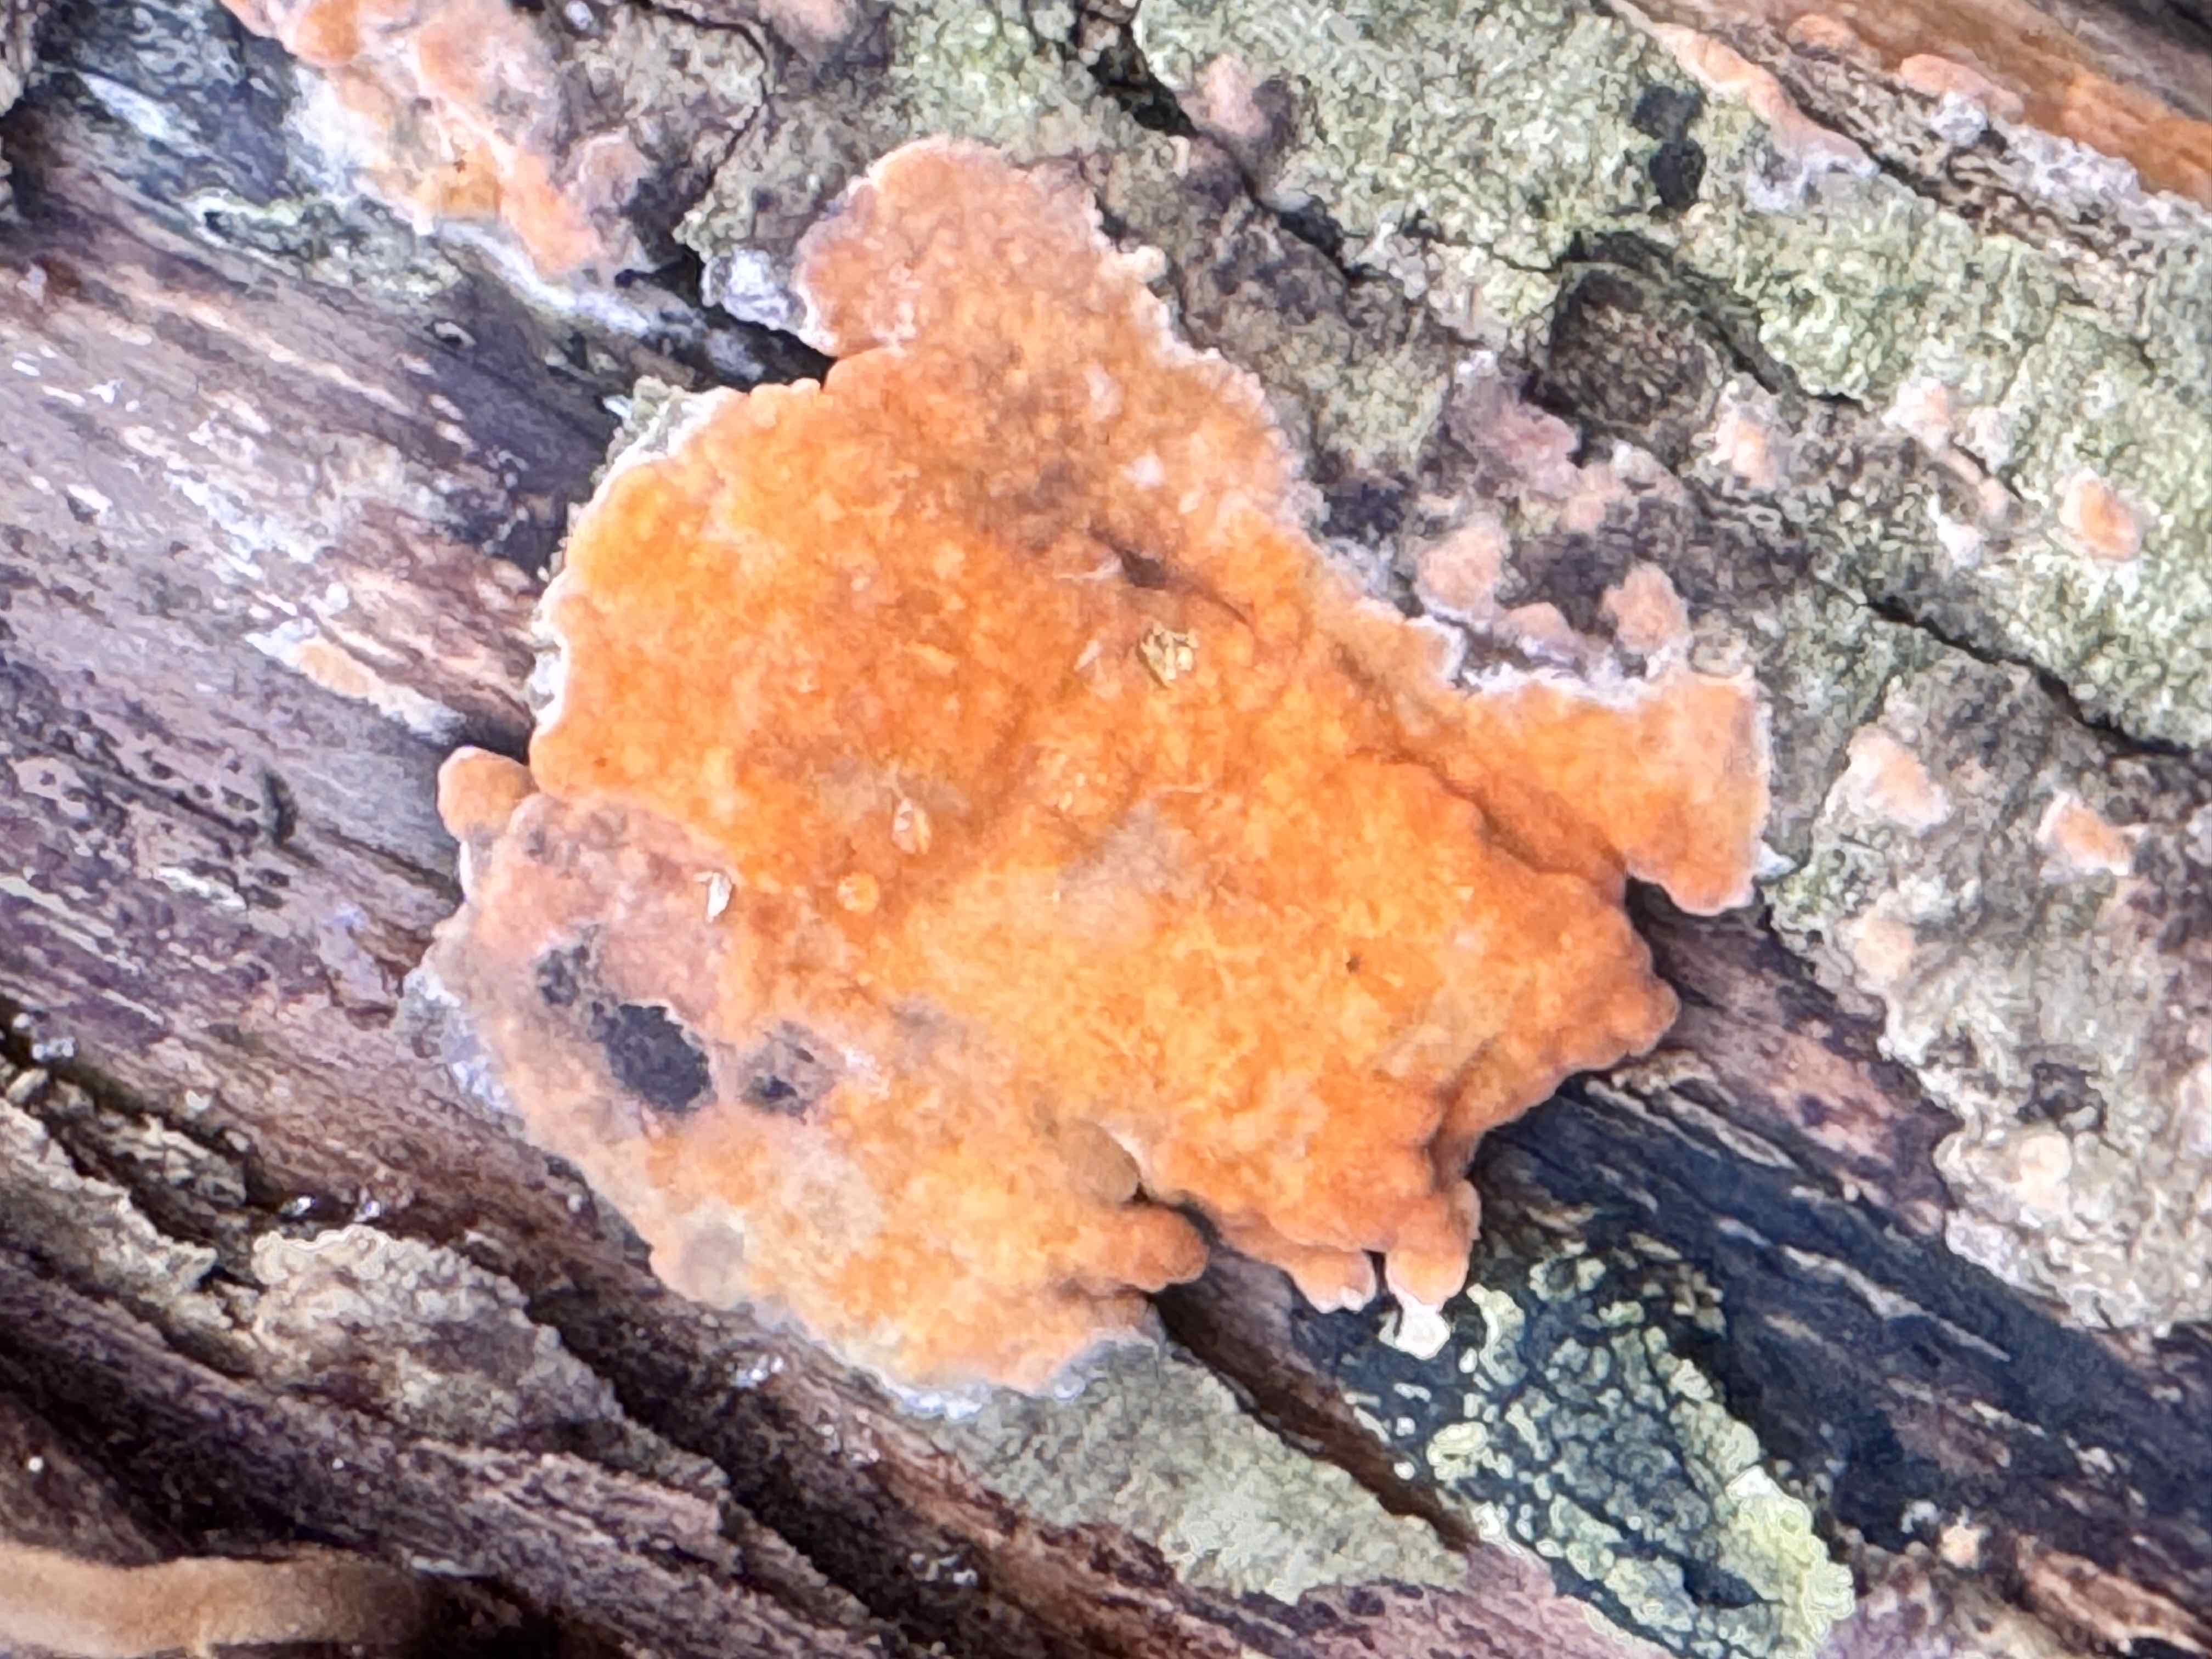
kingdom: Fungi
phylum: Basidiomycota
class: Agaricomycetes
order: Russulales
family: Peniophoraceae
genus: Peniophora
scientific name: Peniophora incarnata
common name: laksefarvet voksskind
